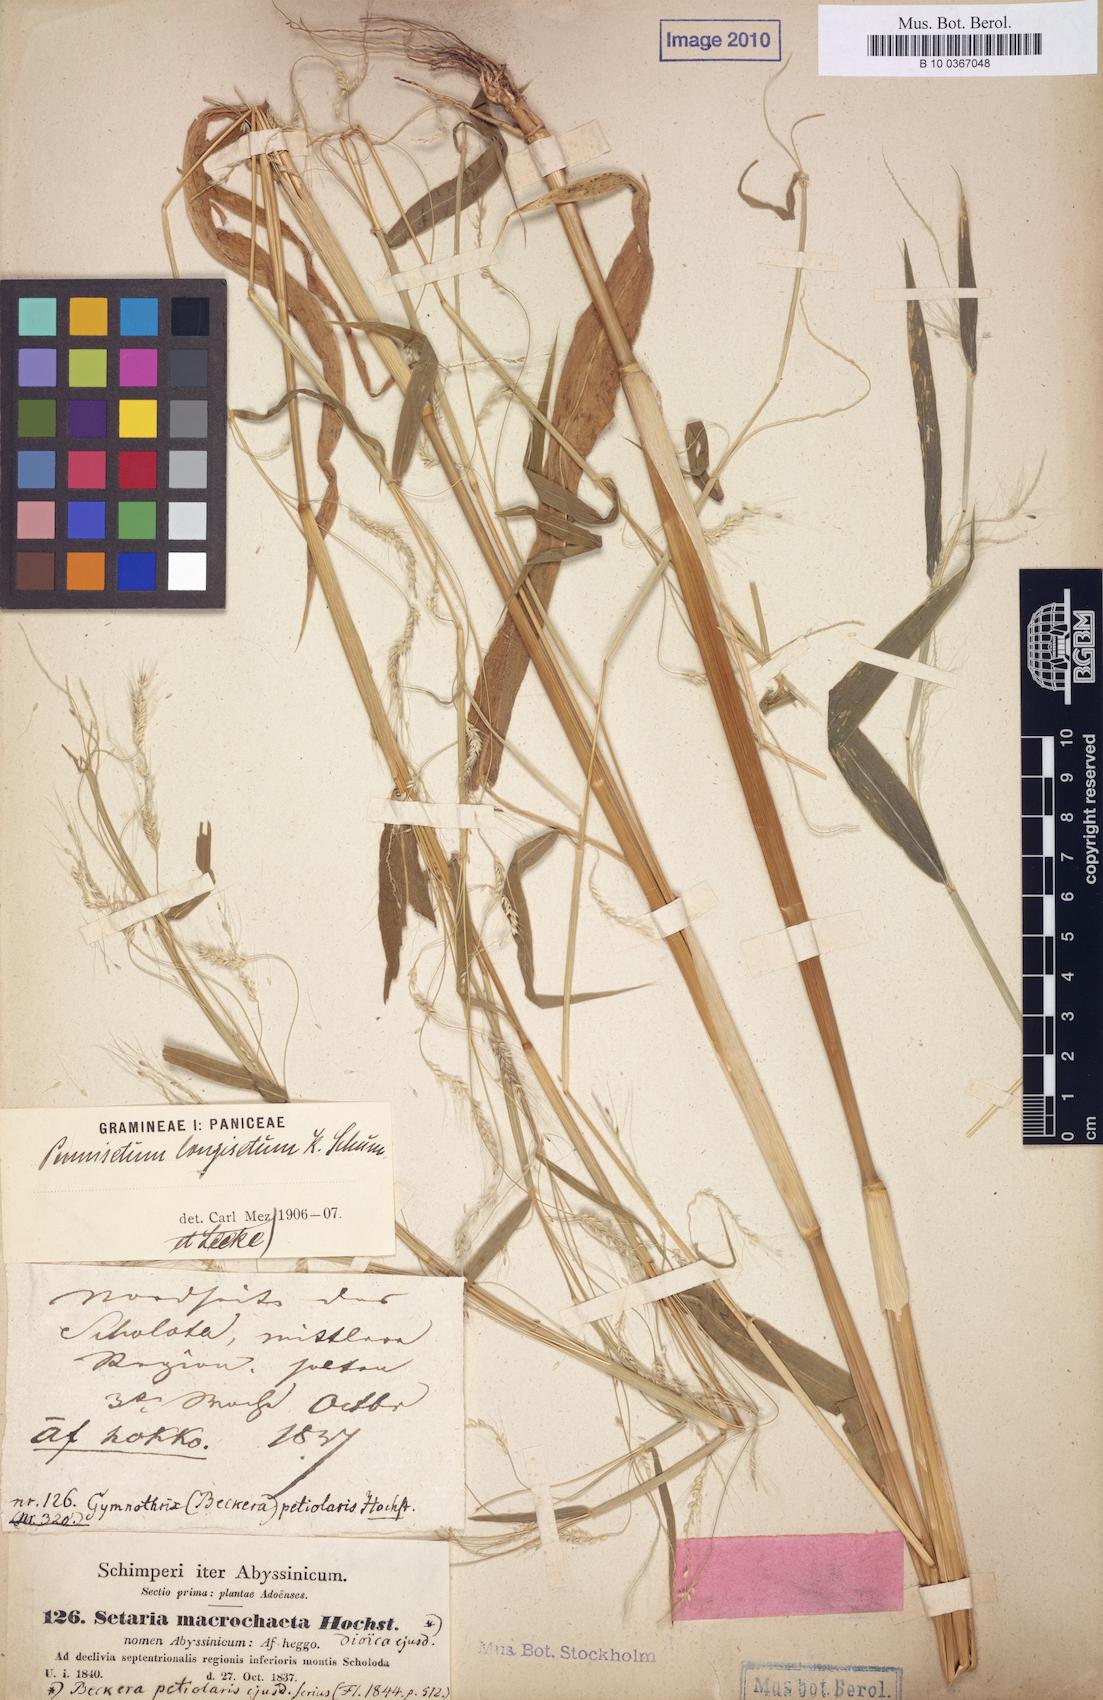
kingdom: Plantae
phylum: Tracheophyta
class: Liliopsida
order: Poales
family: Poaceae
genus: Cenchrus
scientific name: Cenchrus petiolaris
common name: Grass
